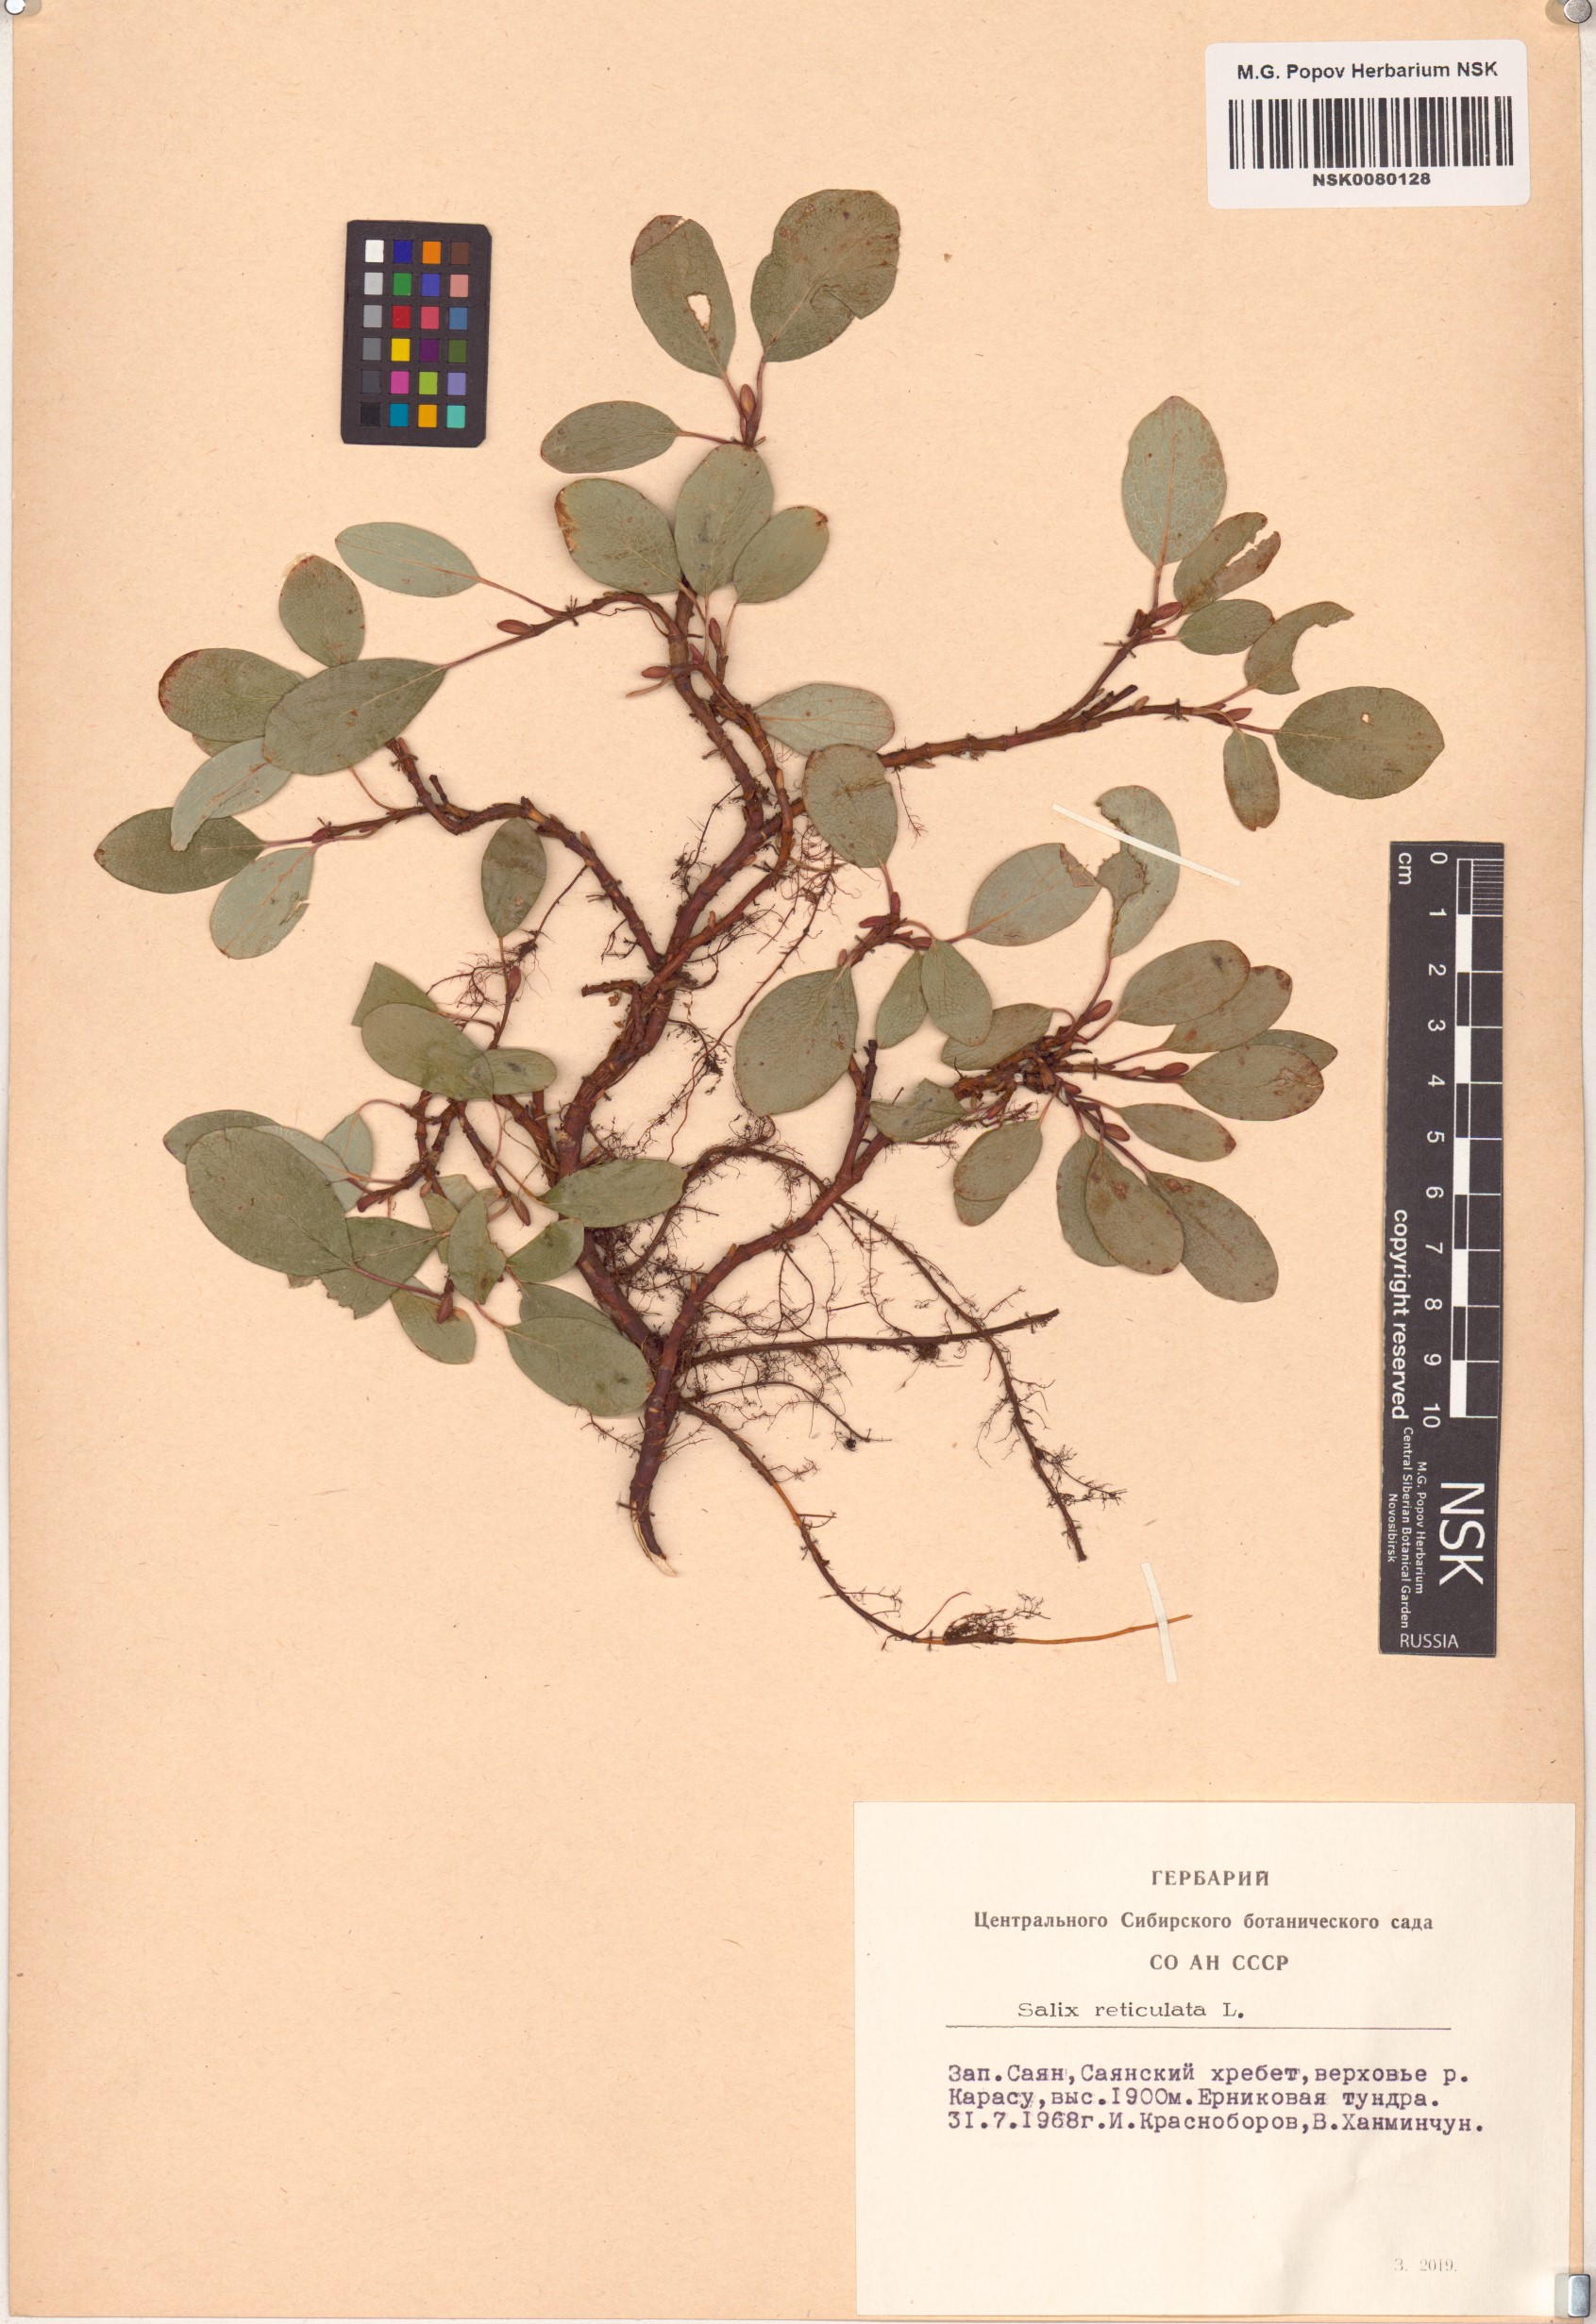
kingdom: Plantae
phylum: Tracheophyta
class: Magnoliopsida
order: Malpighiales
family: Salicaceae
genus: Salix
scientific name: Salix reticulata
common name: Net-leaved willow
